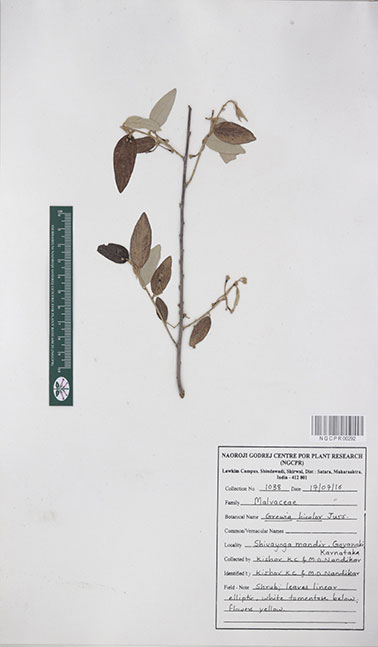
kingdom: Plantae
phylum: Tracheophyta
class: Magnoliopsida
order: Malvales
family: Malvaceae
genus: Grewia
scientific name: Grewia bicolor
